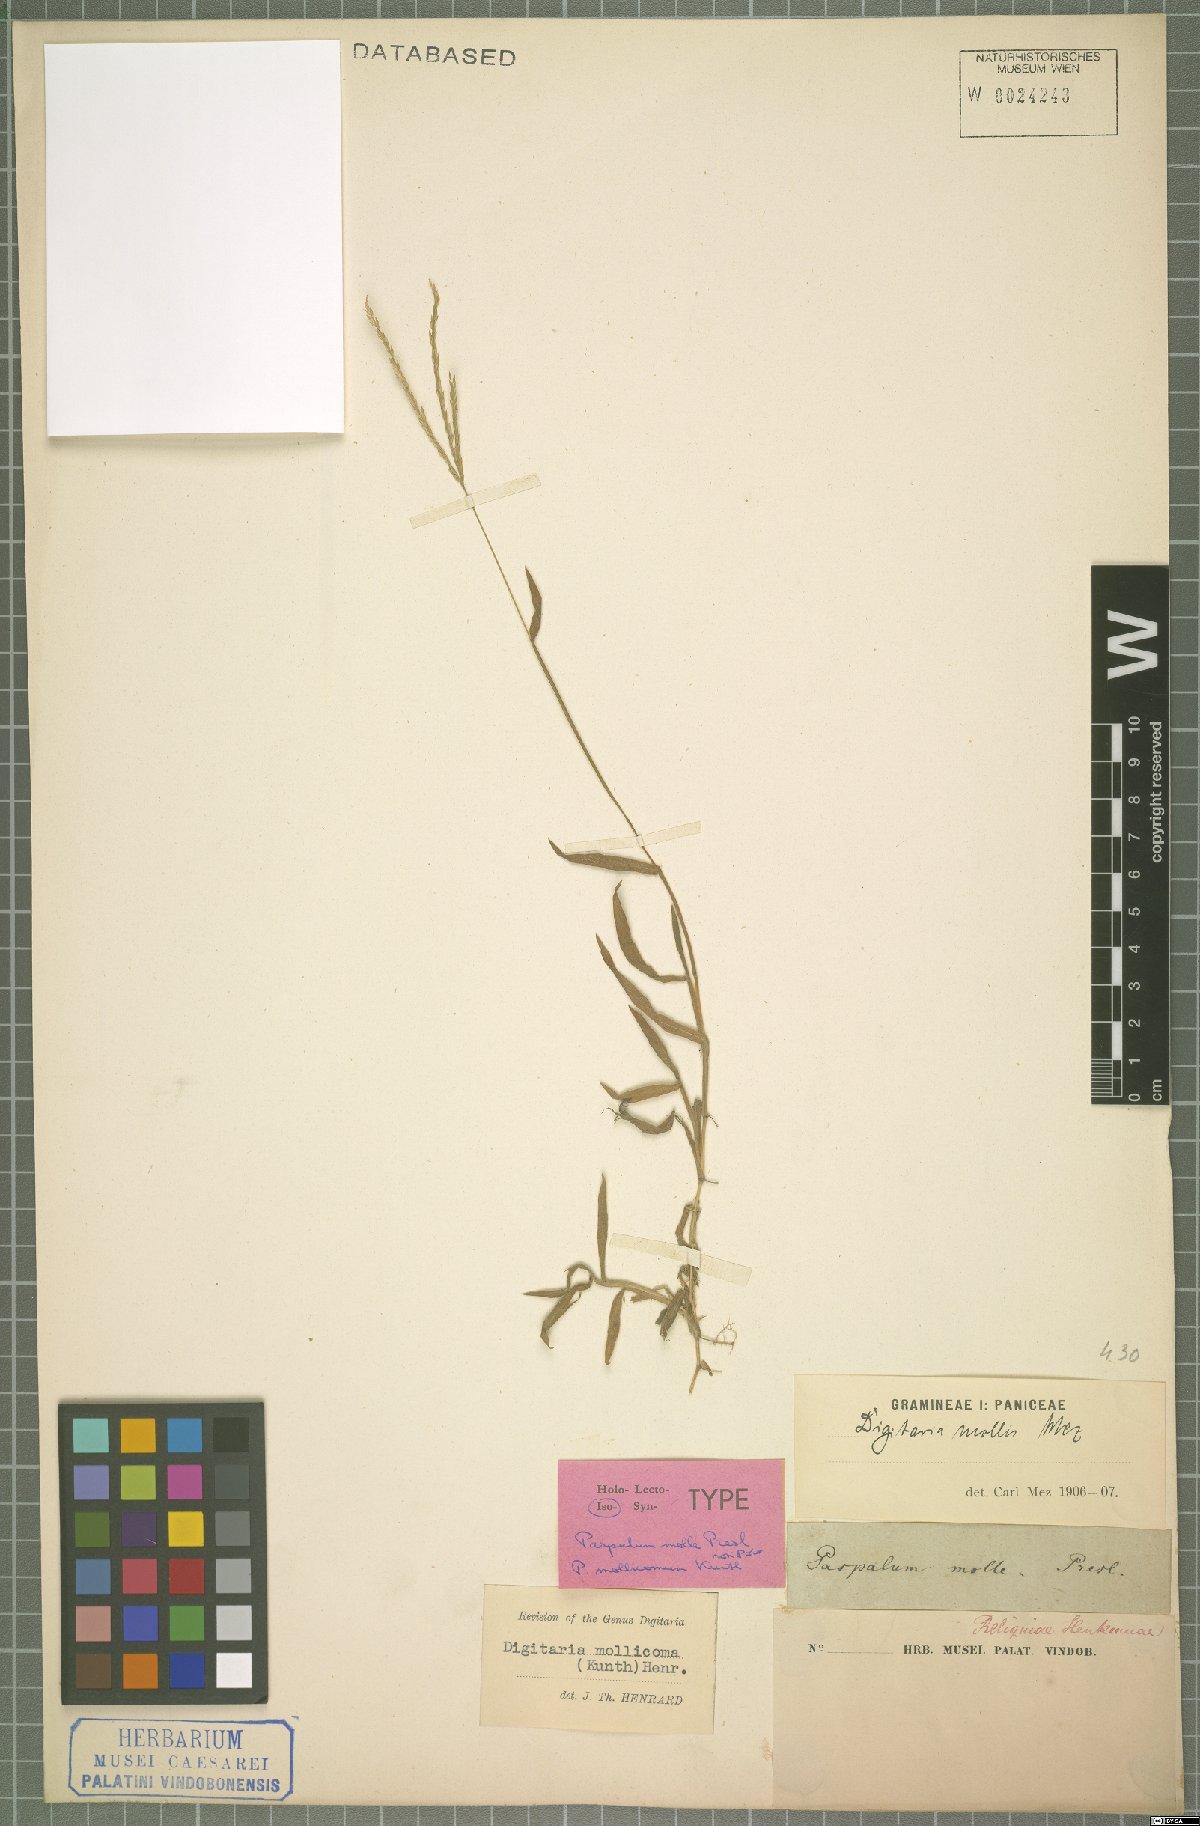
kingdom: Plantae
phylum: Tracheophyta
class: Liliopsida
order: Poales
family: Poaceae
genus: Digitaria
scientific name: Digitaria mollicoma
